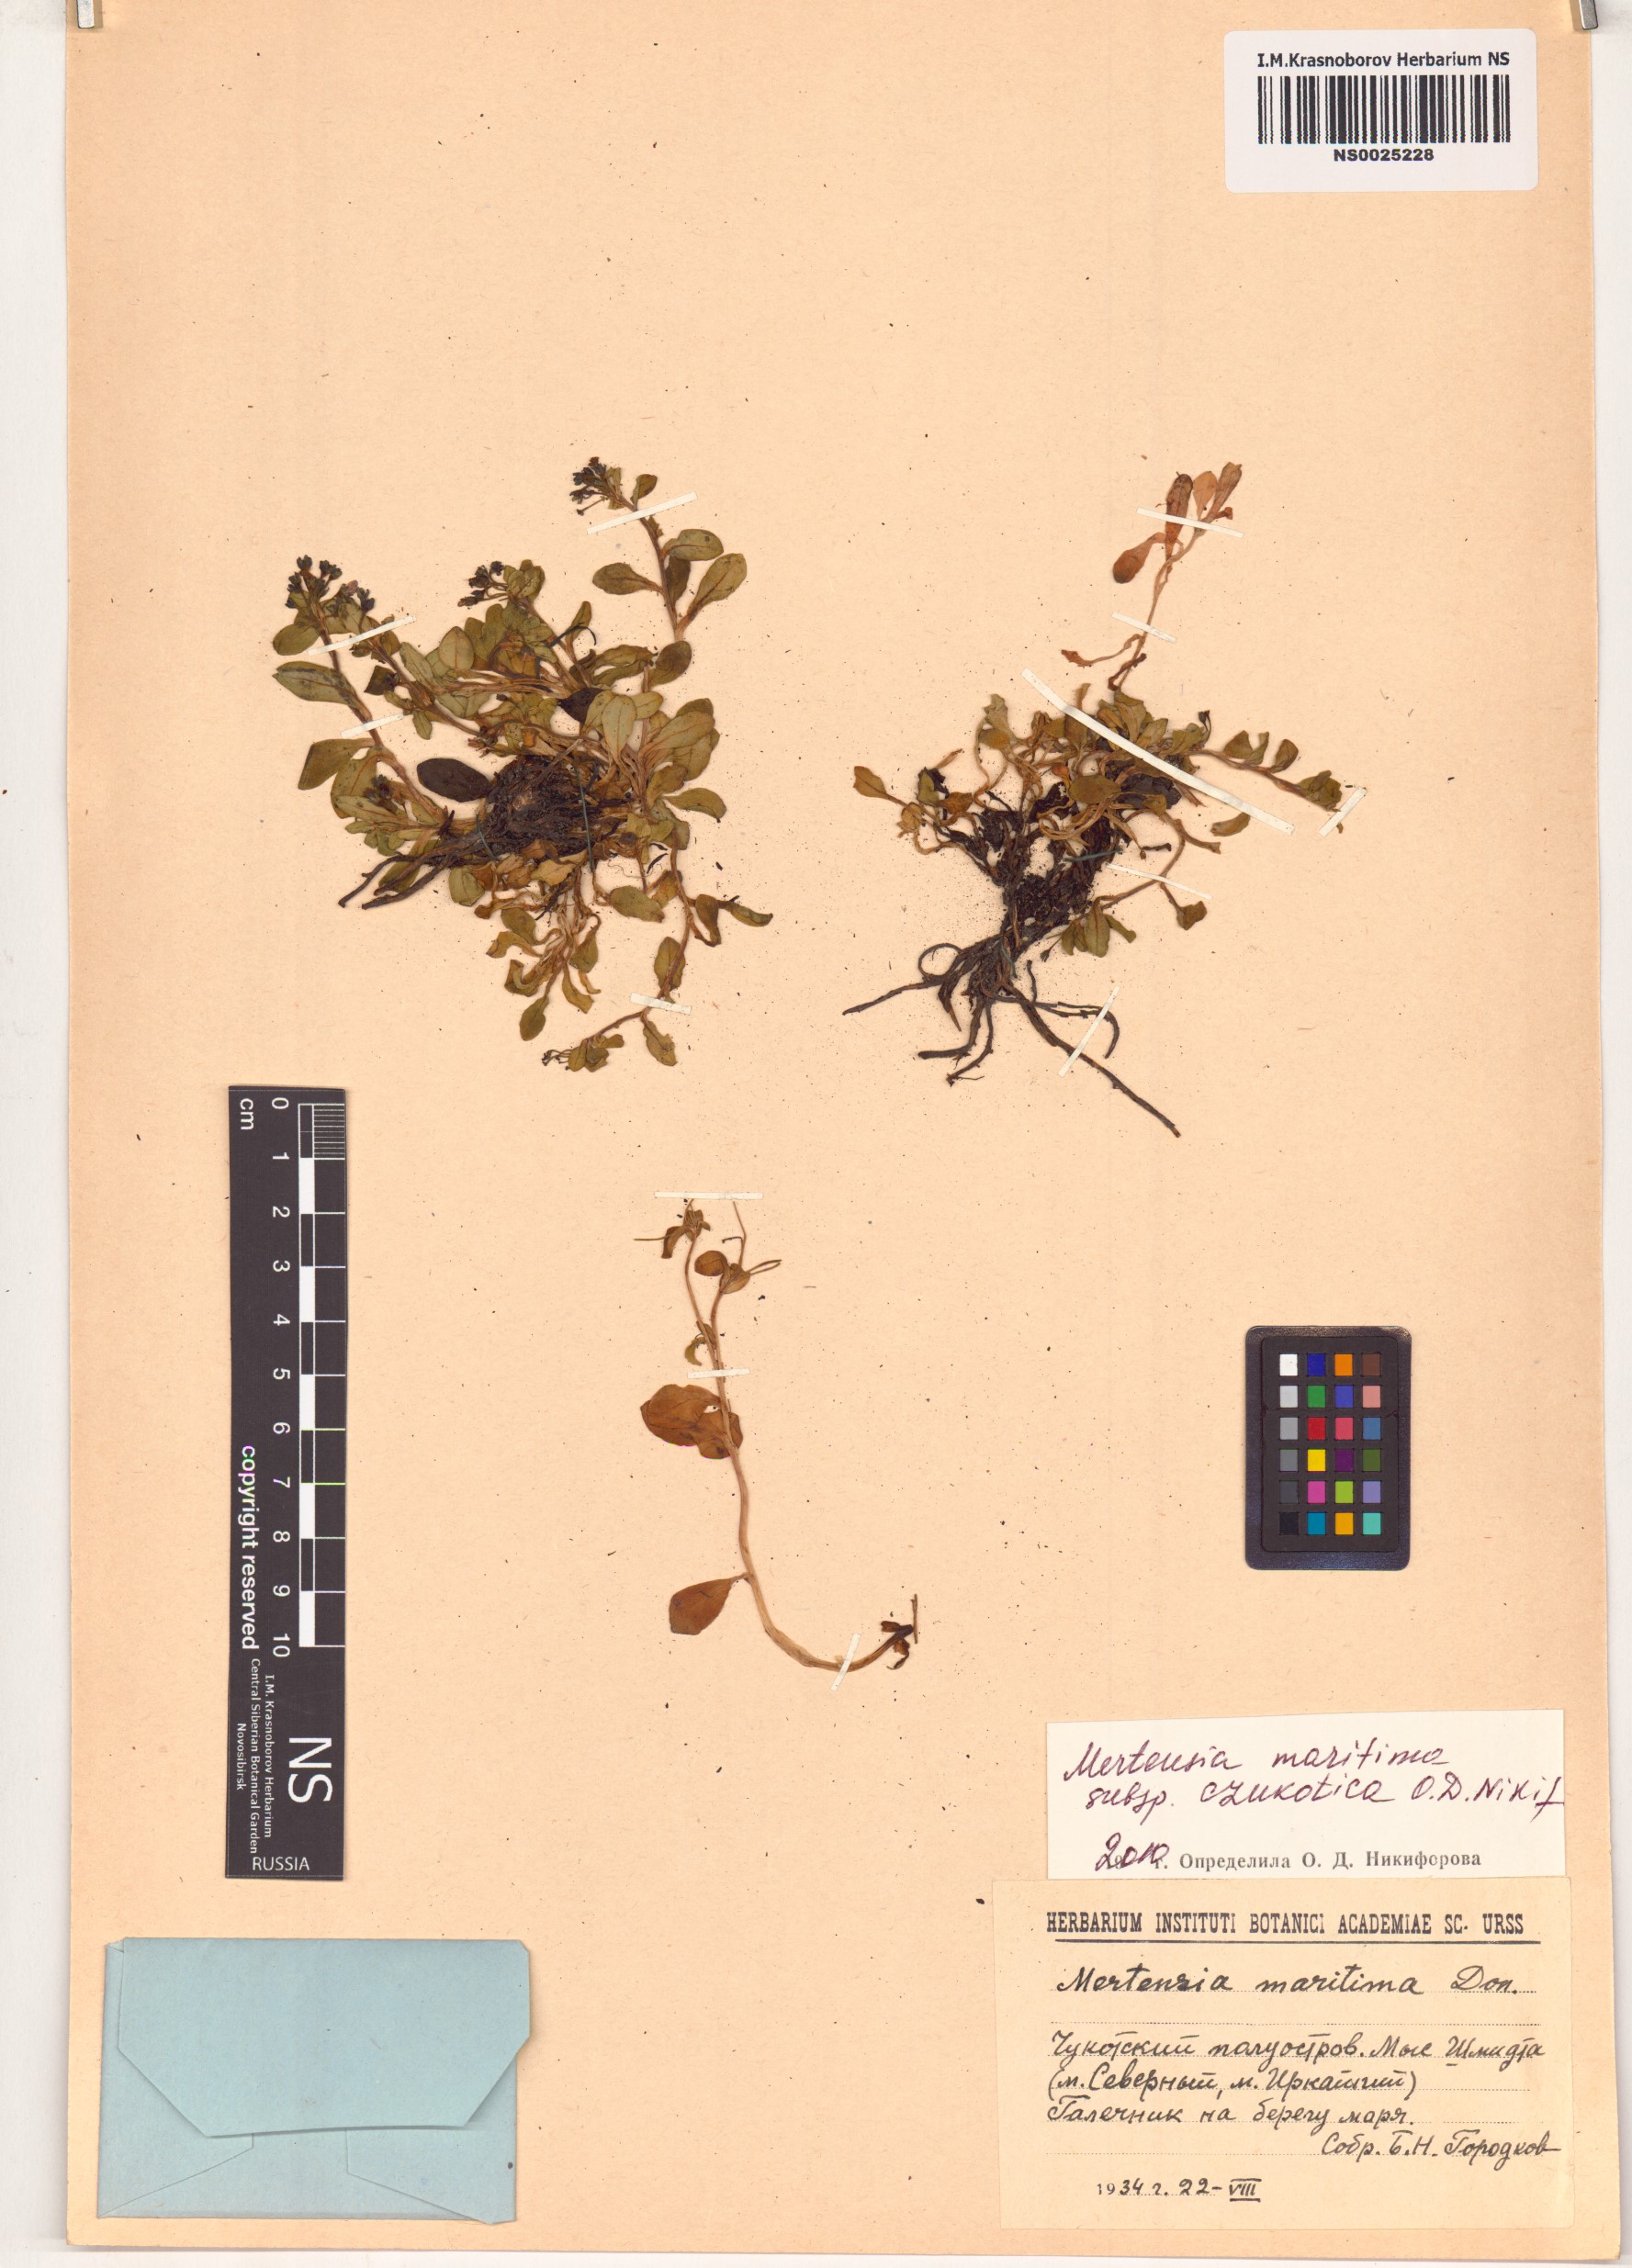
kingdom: Plantae
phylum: Tracheophyta
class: Magnoliopsida
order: Boraginales
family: Boraginaceae
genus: Mertensia
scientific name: Mertensia maritima
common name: Oysterplant
